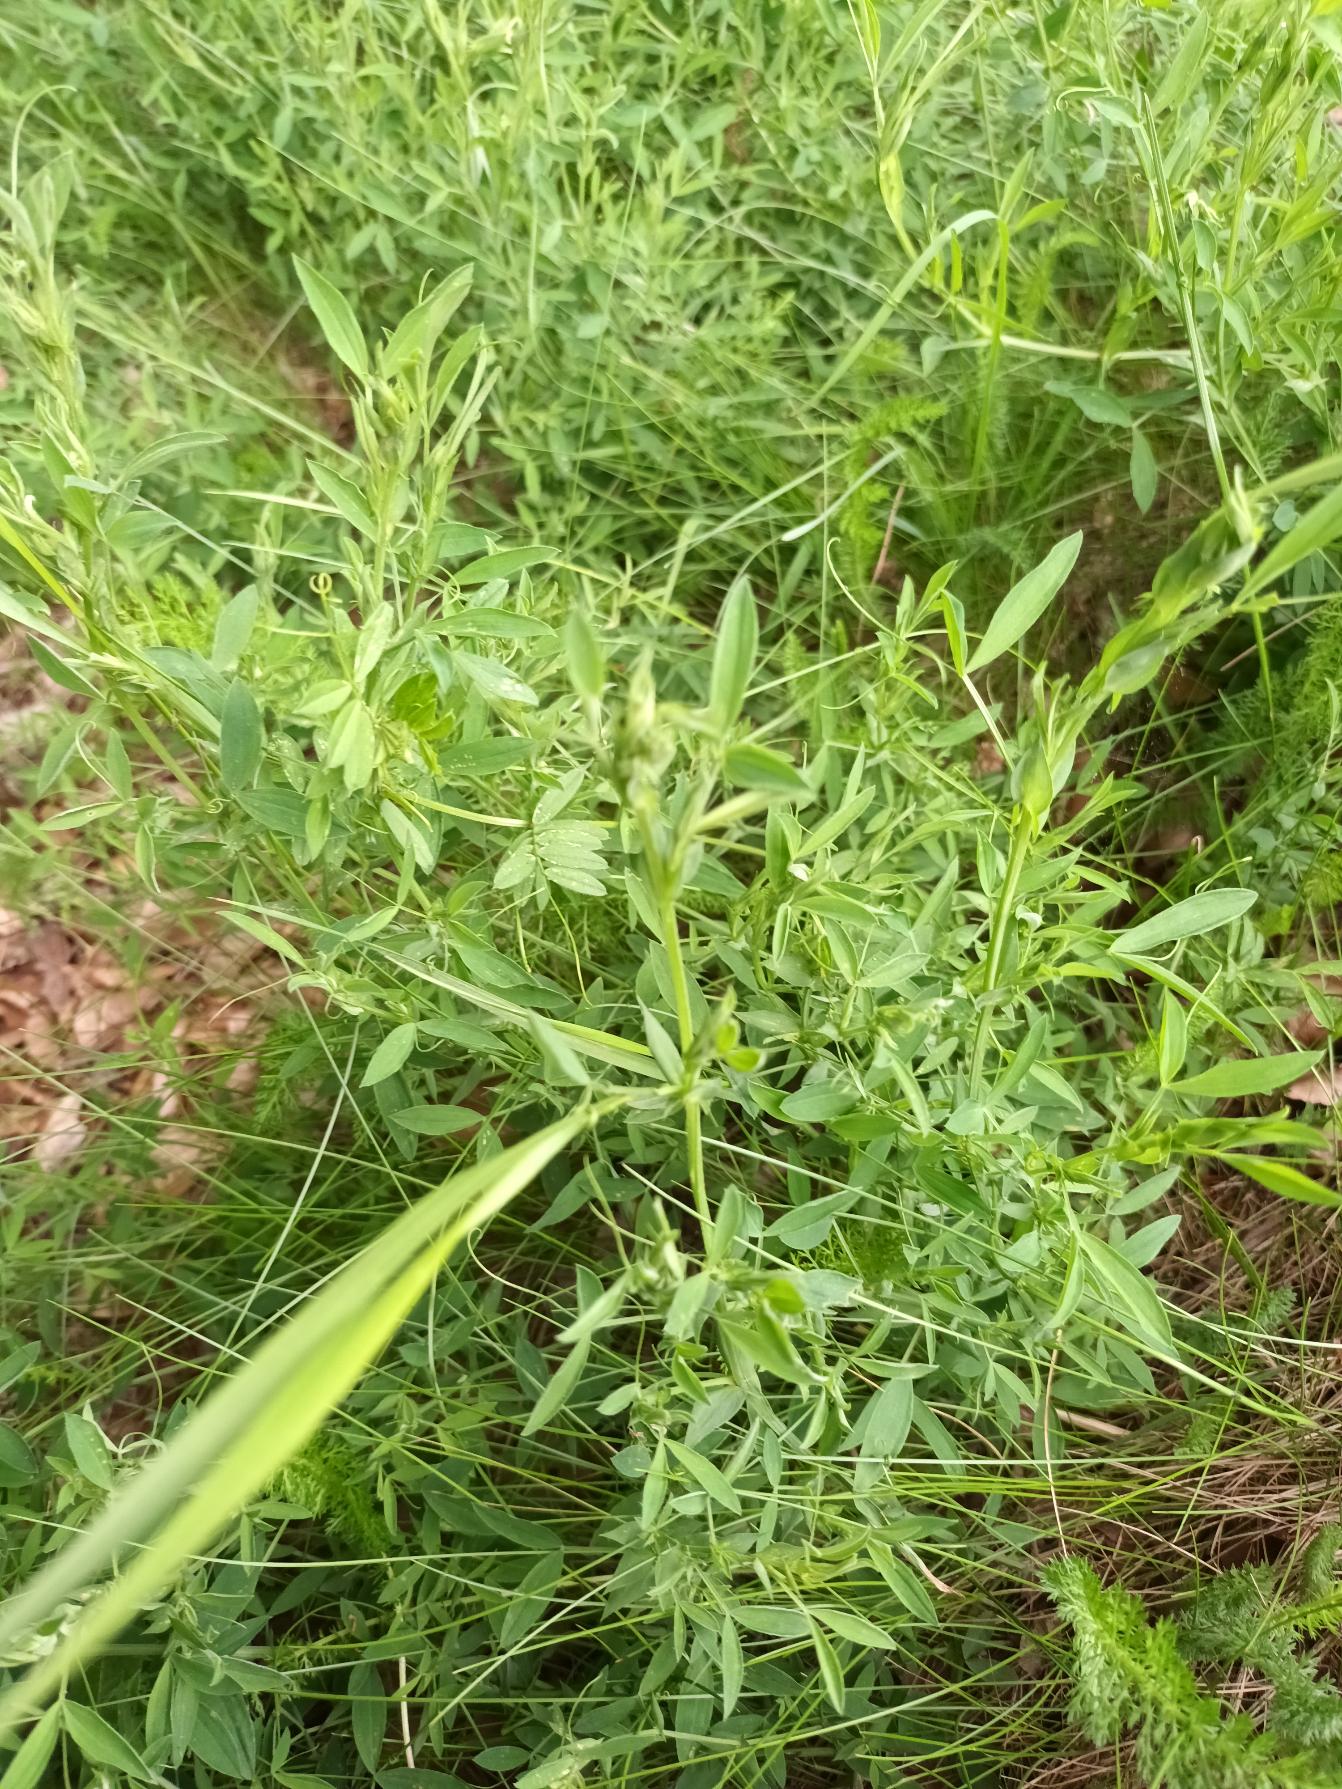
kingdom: Plantae
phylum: Tracheophyta
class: Magnoliopsida
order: Fabales
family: Fabaceae
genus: Lathyrus
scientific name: Lathyrus pratensis
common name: Gul fladbælg
